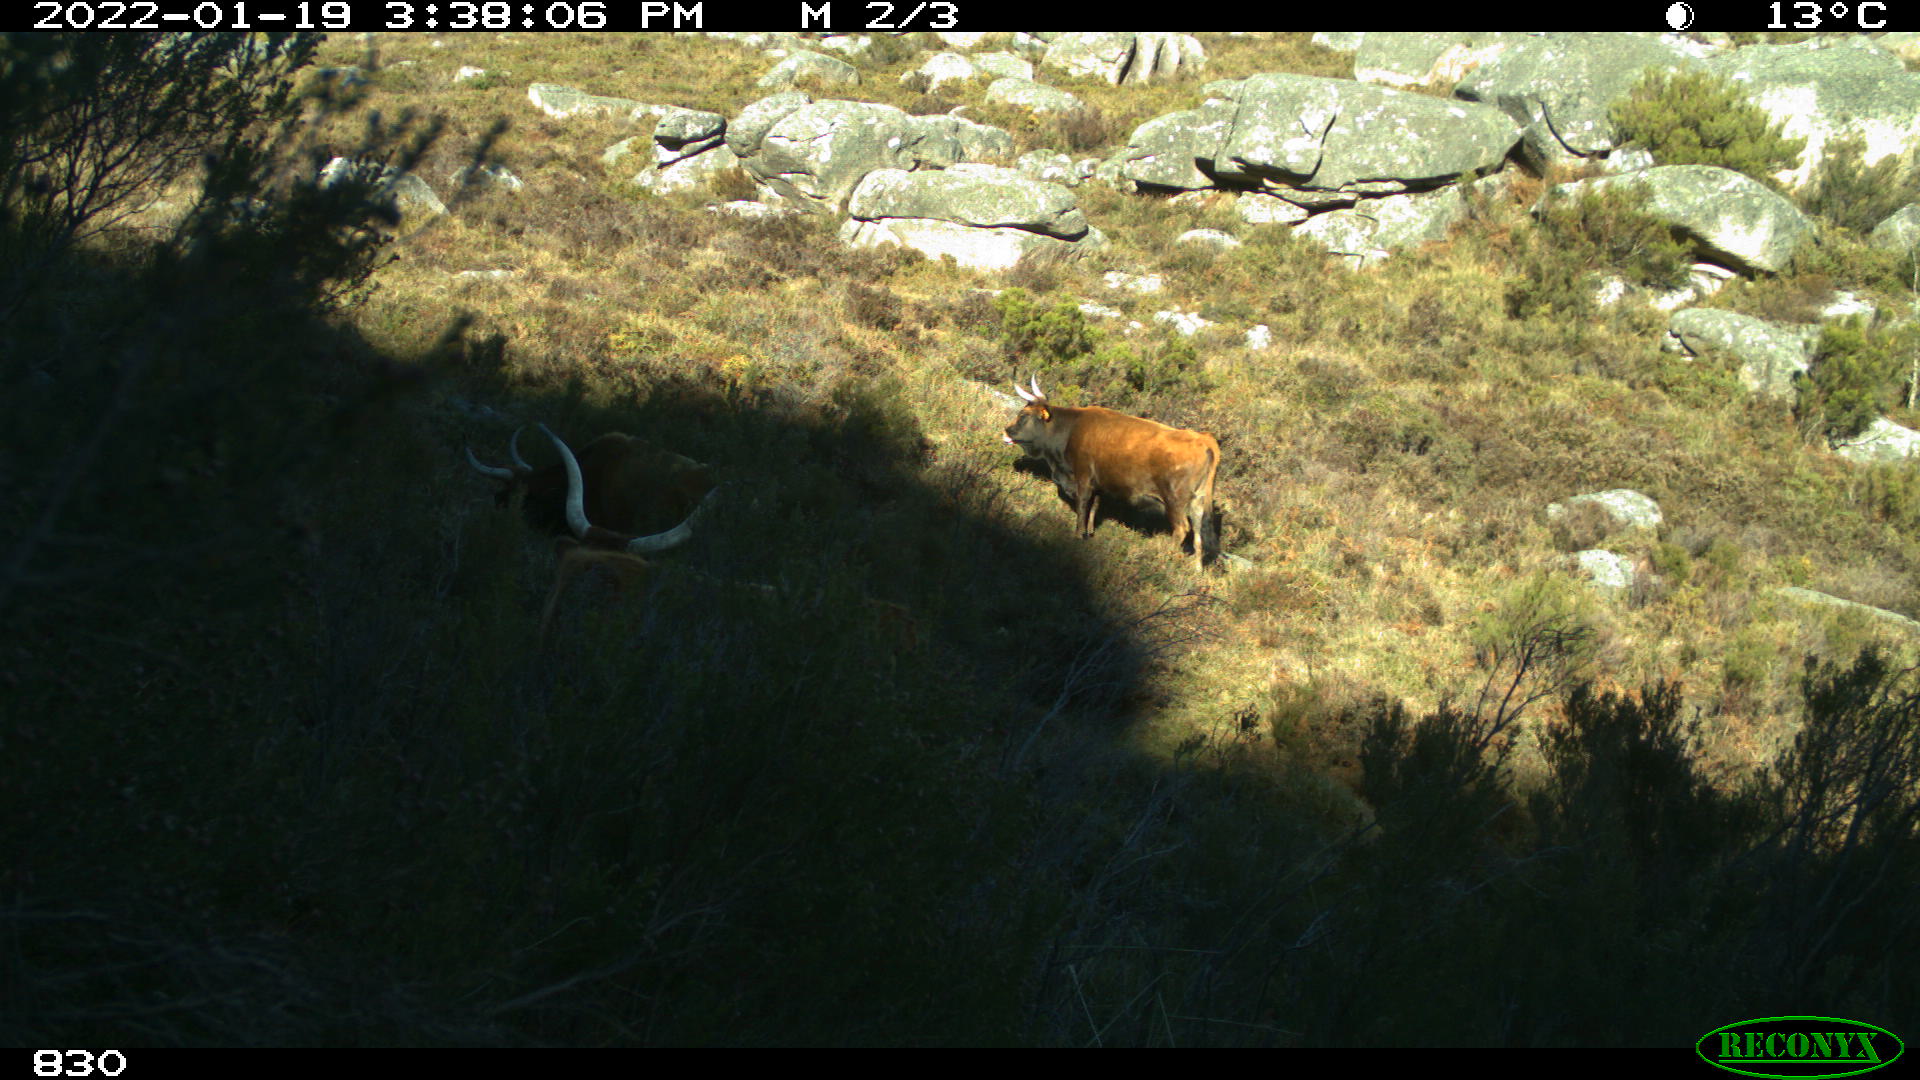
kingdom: Animalia
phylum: Chordata
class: Mammalia
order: Artiodactyla
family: Bovidae
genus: Bos
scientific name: Bos taurus
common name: Domesticated cattle
